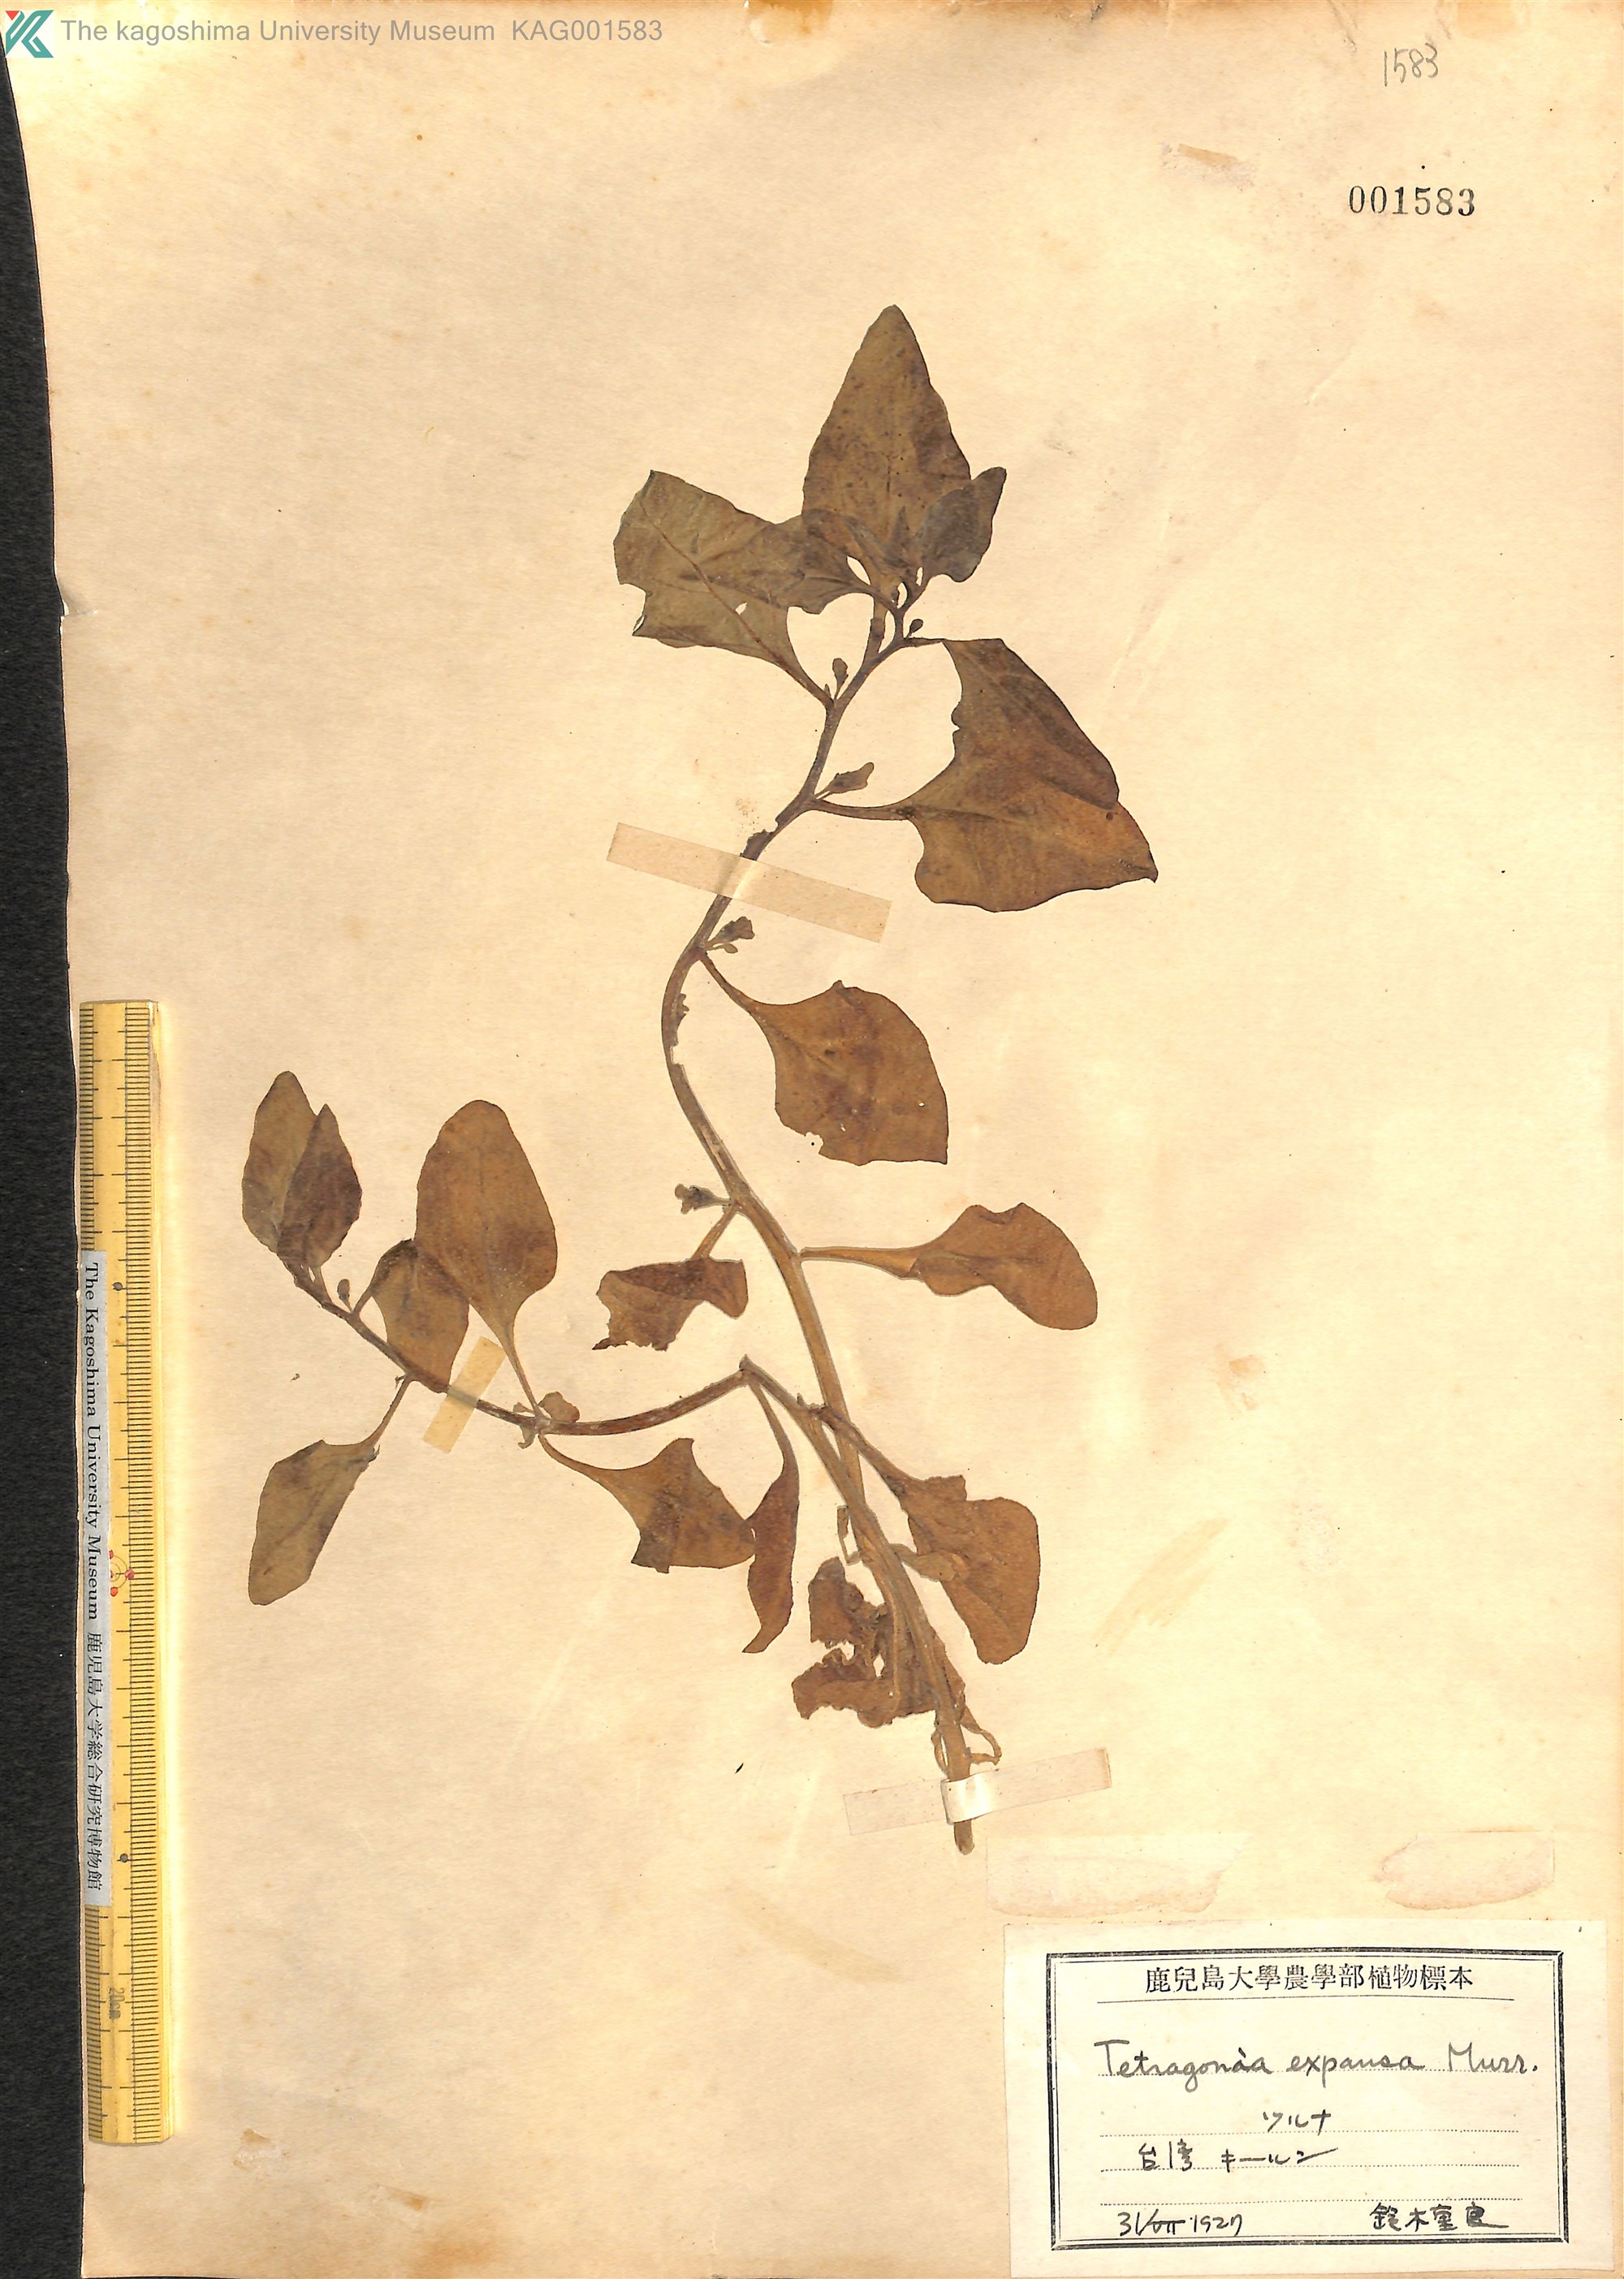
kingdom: Plantae
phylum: Tracheophyta
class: Magnoliopsida
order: Caryophyllales
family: Aizoaceae
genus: Tetragonia
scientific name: Tetragonia tetragonoides
